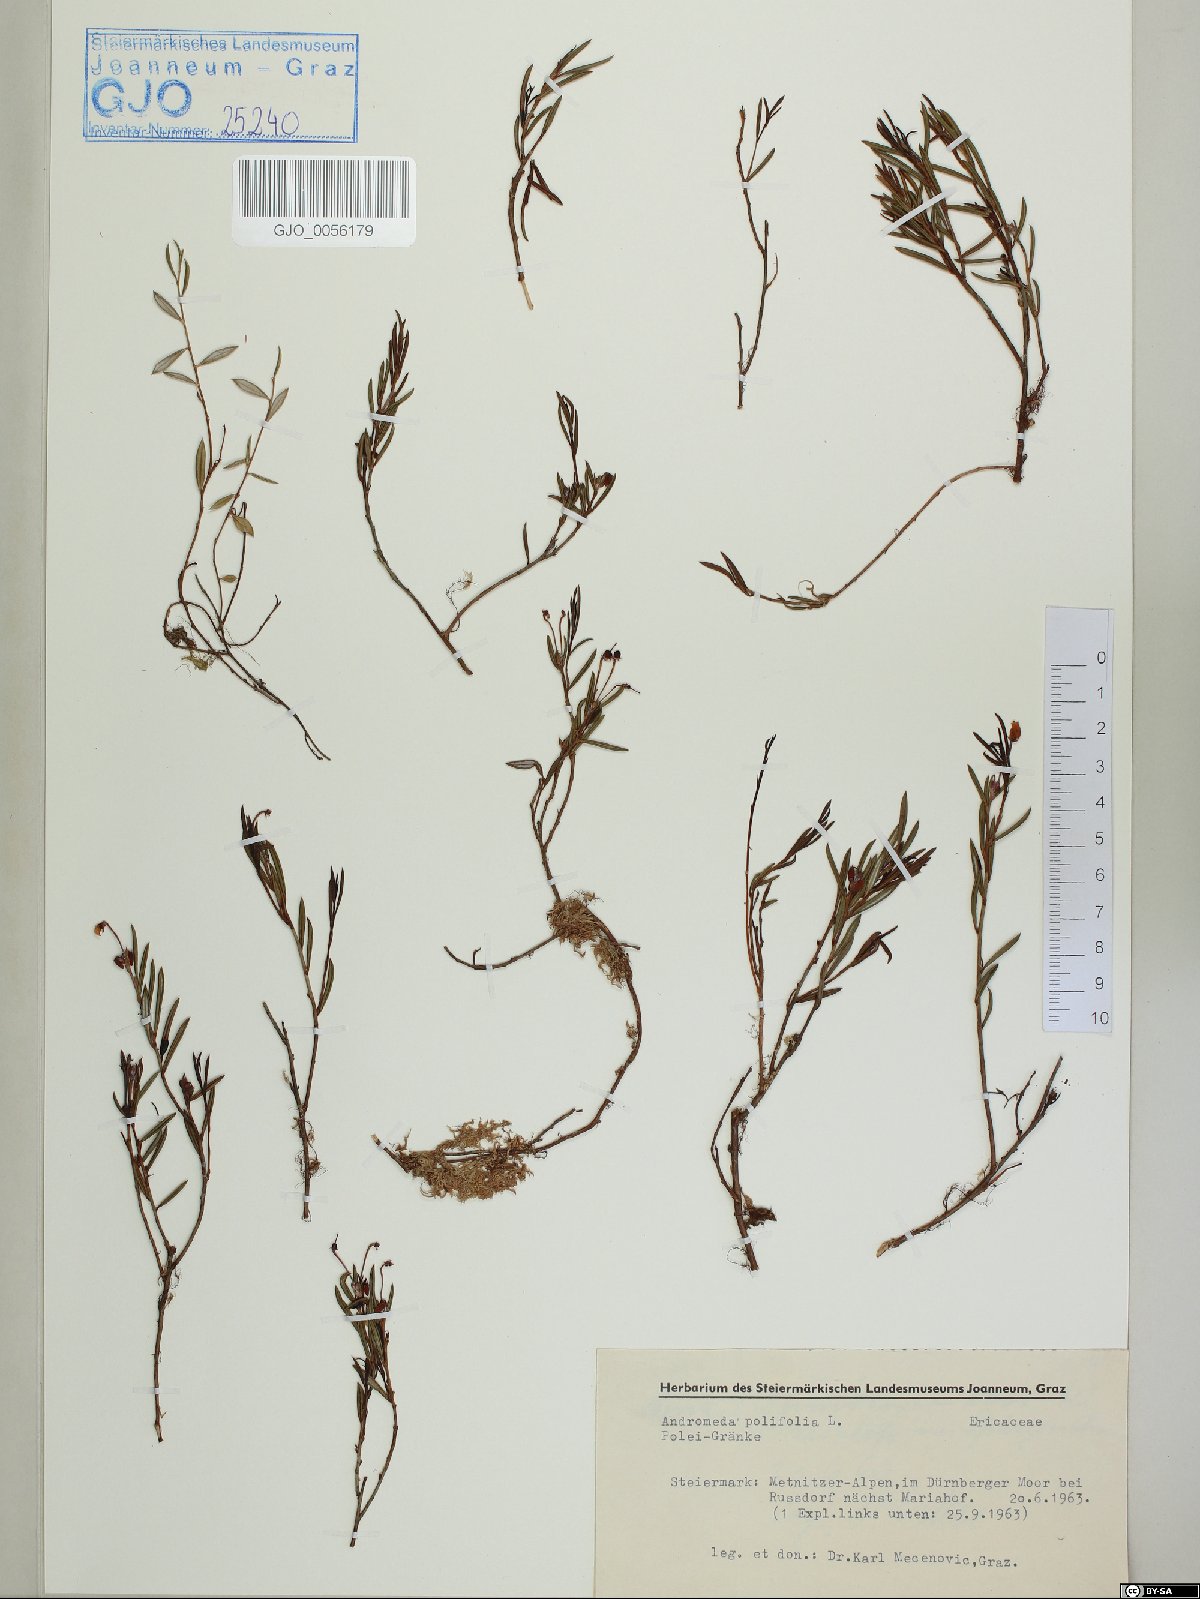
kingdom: Plantae
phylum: Tracheophyta
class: Magnoliopsida
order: Ericales
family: Ericaceae
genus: Andromeda
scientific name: Andromeda polifolia
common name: Bog-rosemary
